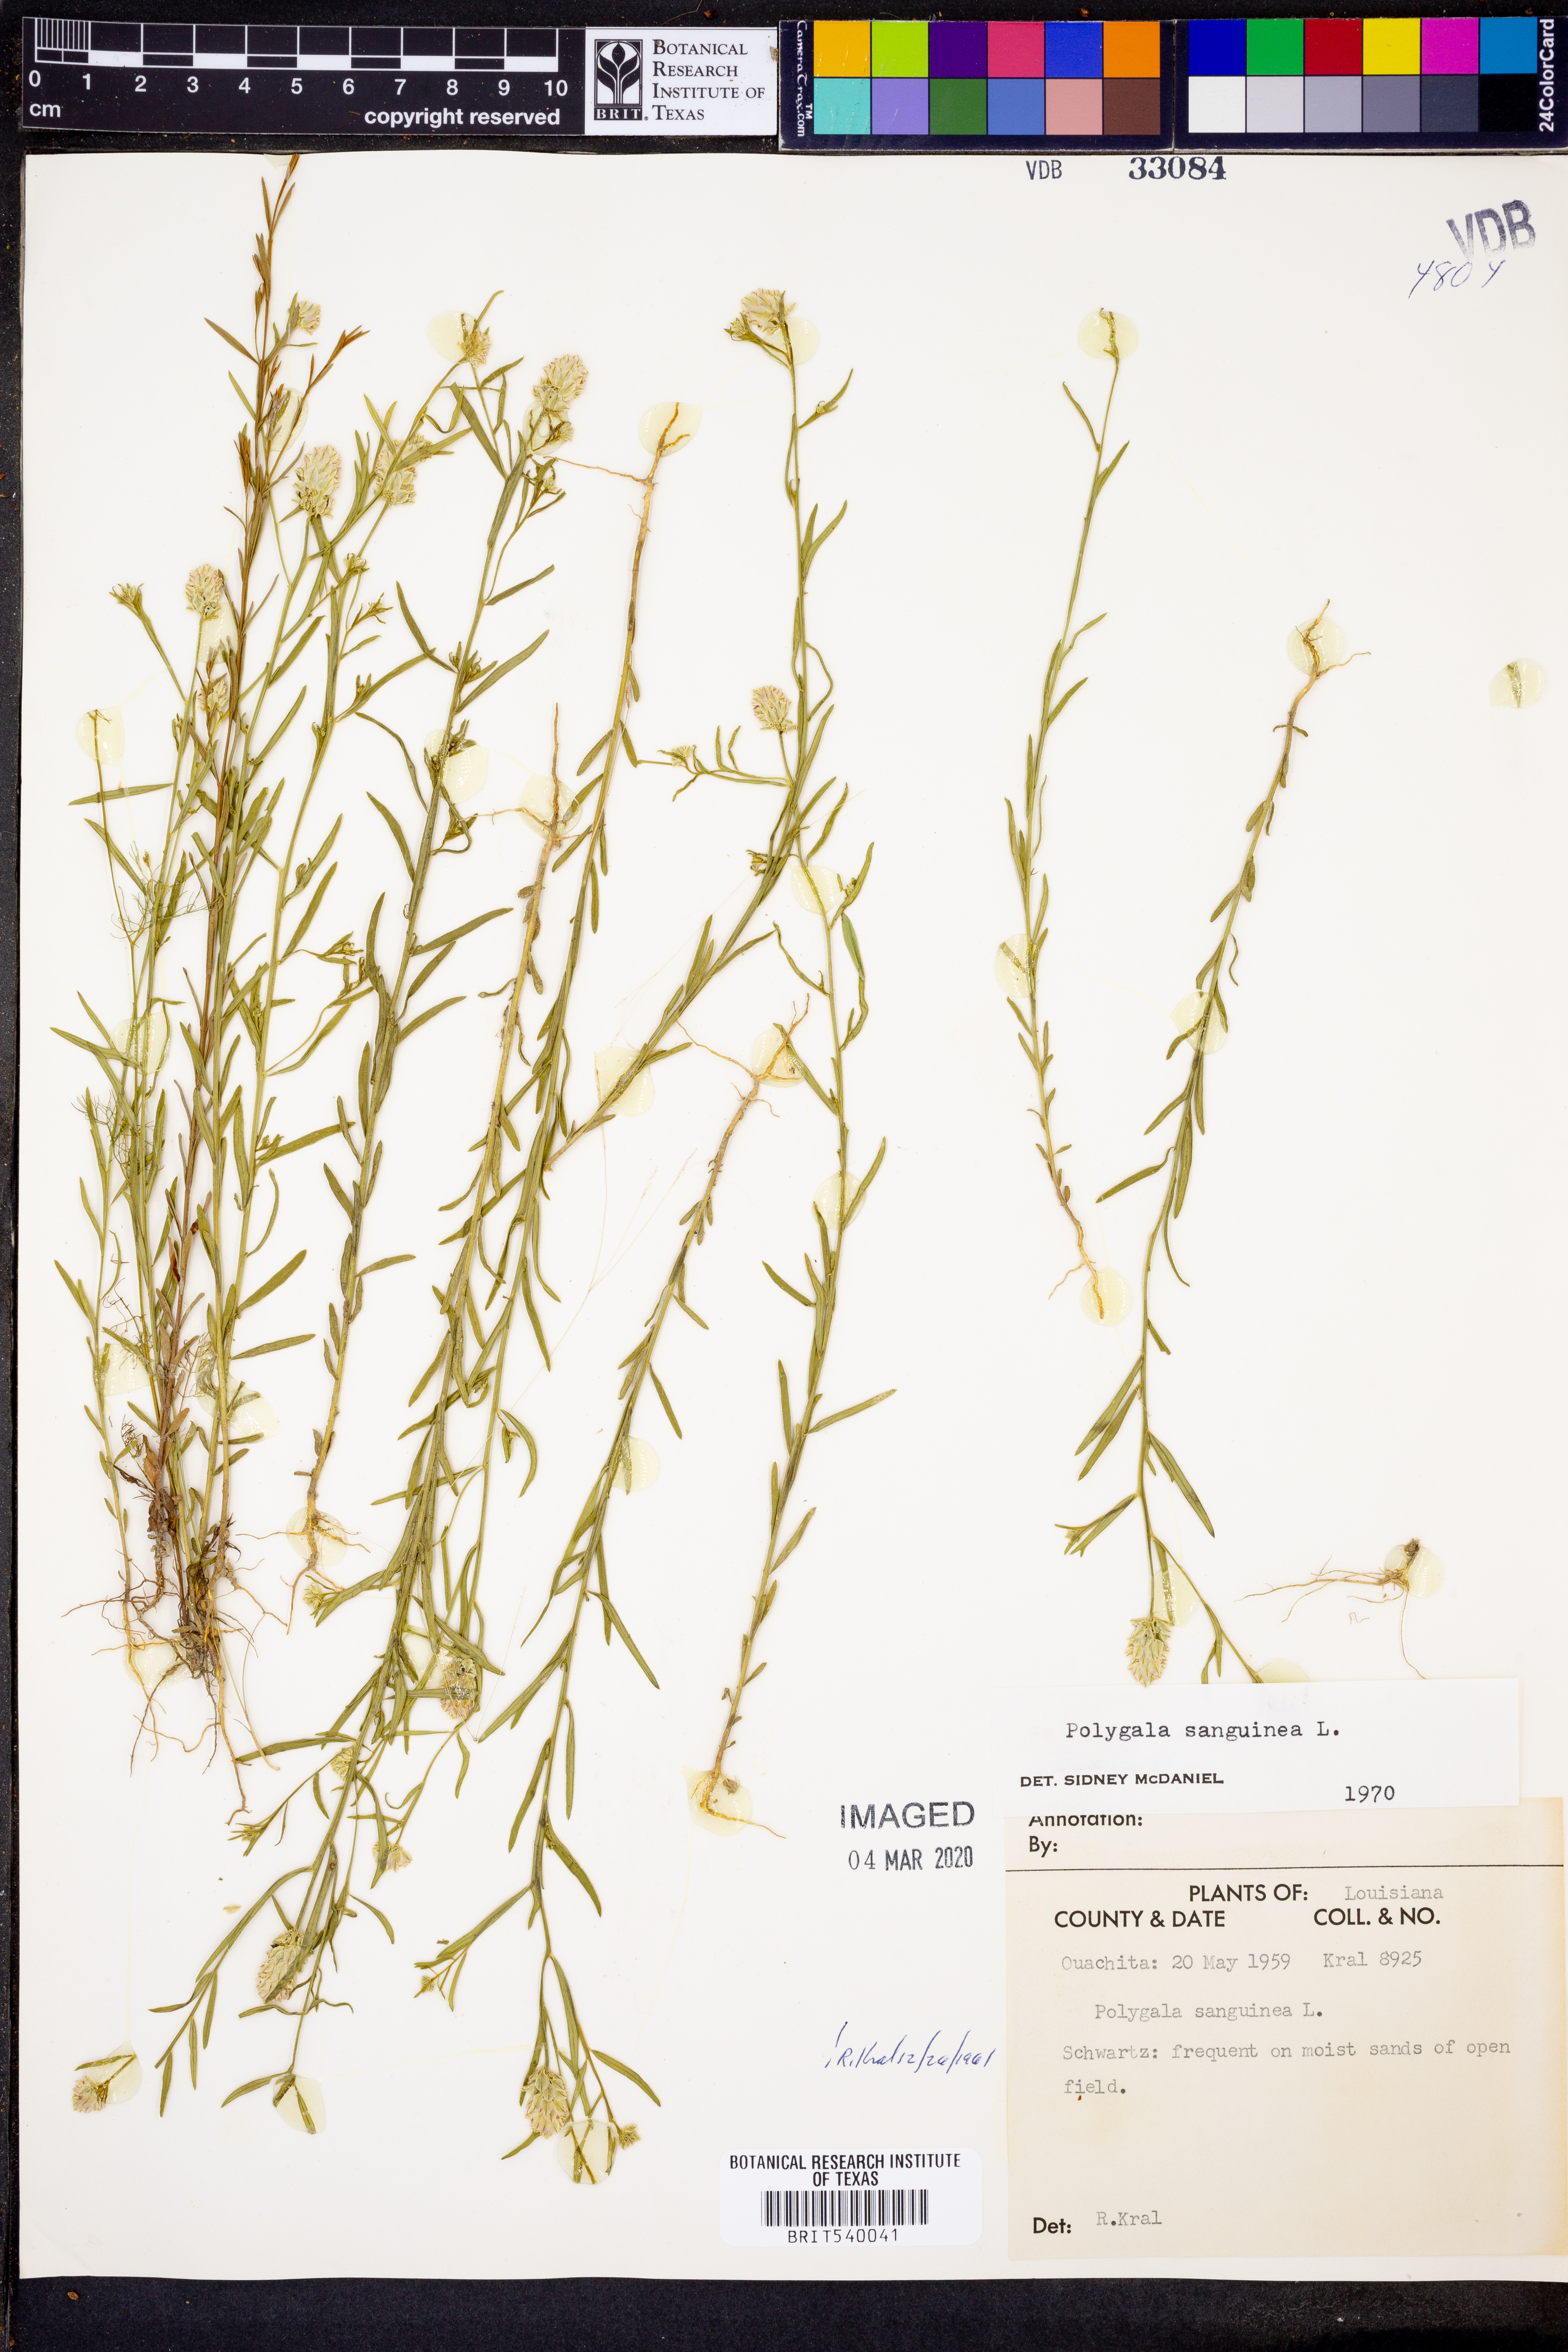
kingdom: Plantae
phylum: Tracheophyta
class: Magnoliopsida
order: Fabales
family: Polygalaceae
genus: Polygala
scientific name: Polygala sanguinea
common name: Blood milkwort
